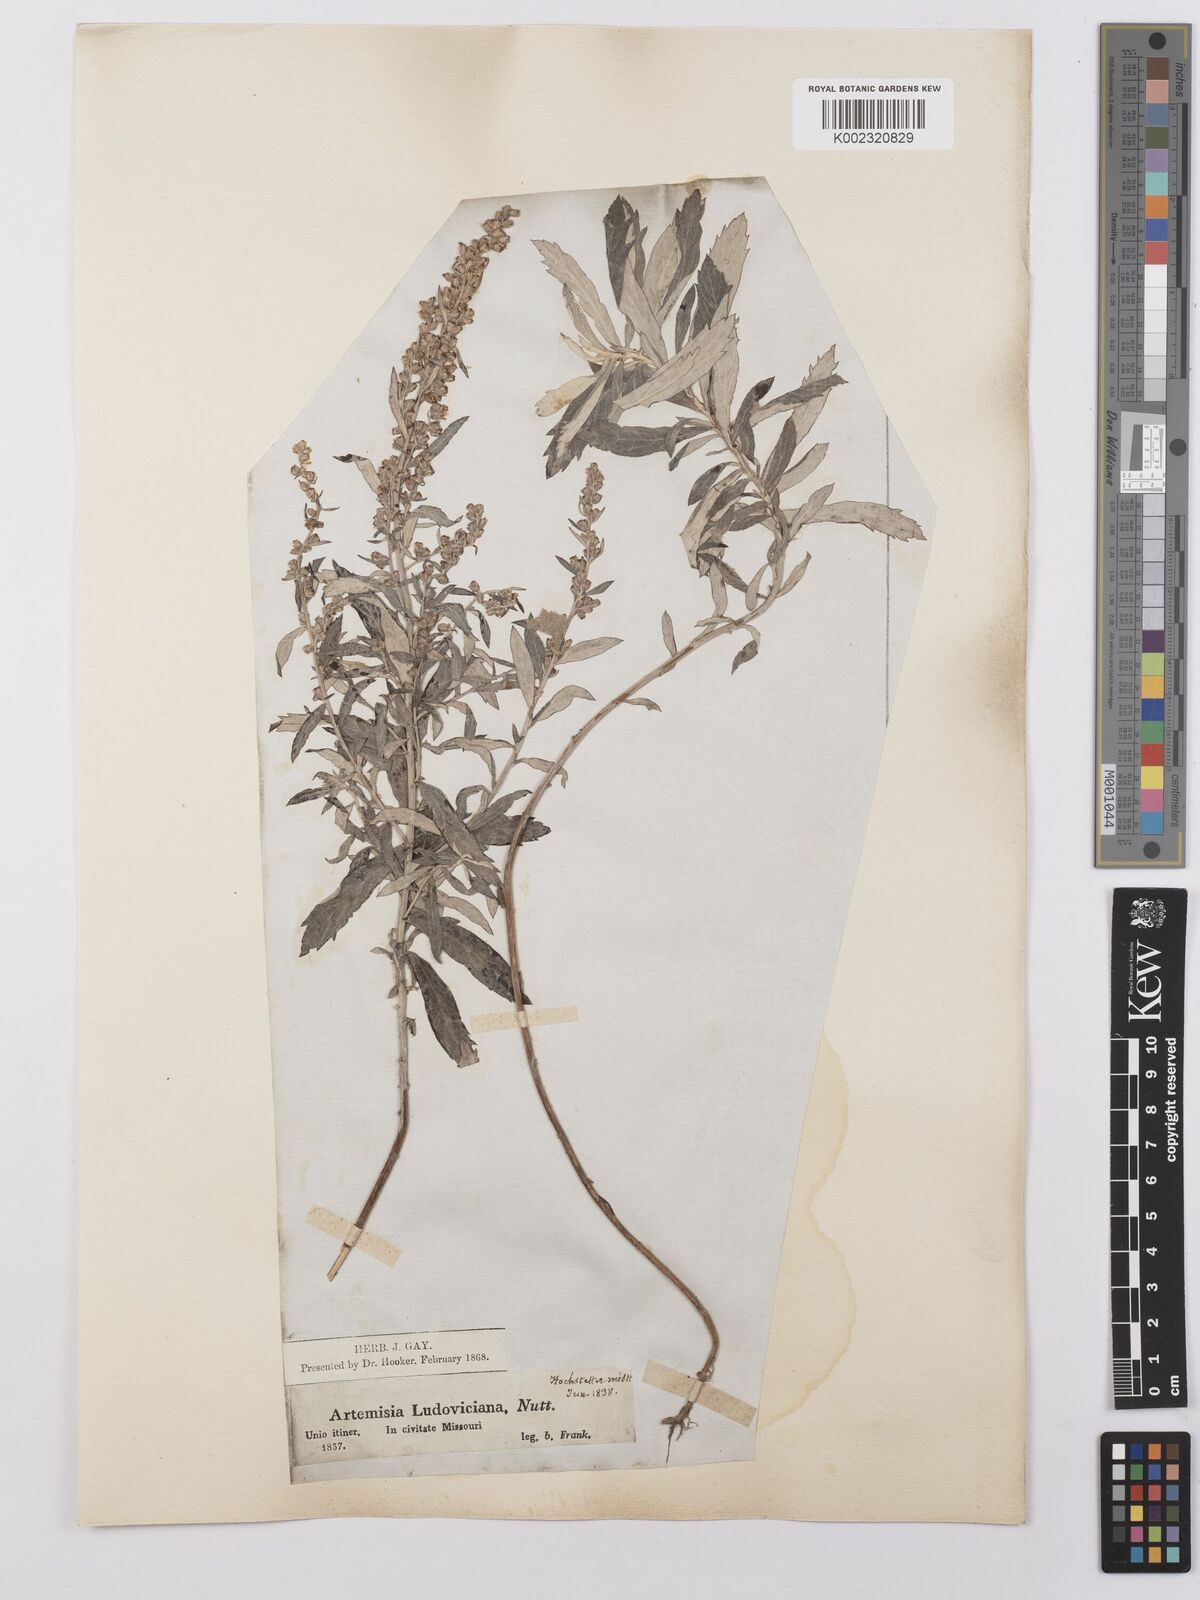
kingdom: Plantae
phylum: Tracheophyta
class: Magnoliopsida
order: Asterales
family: Asteraceae
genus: Artemisia
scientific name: Artemisia ludoviciana
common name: Western mugwort
